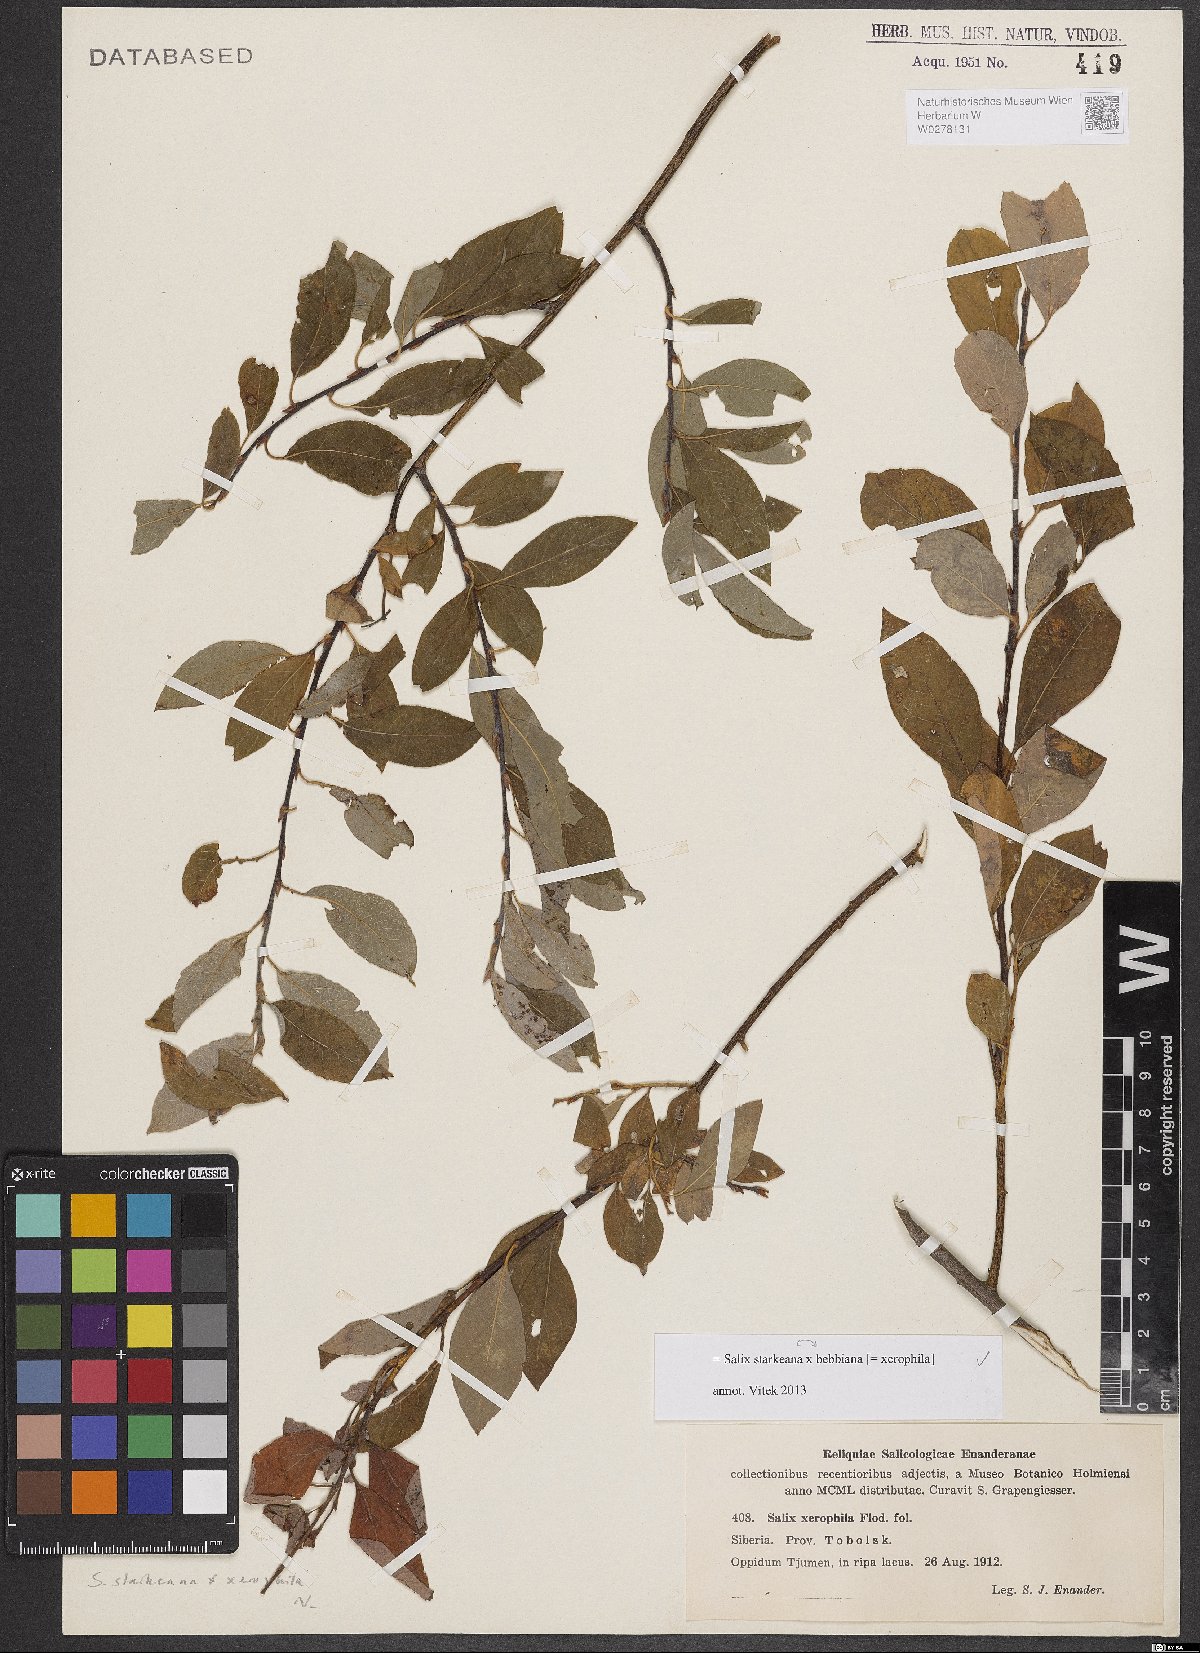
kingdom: Plantae
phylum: Tracheophyta
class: Magnoliopsida
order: Malpighiales
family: Salicaceae
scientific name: Salicaceae
